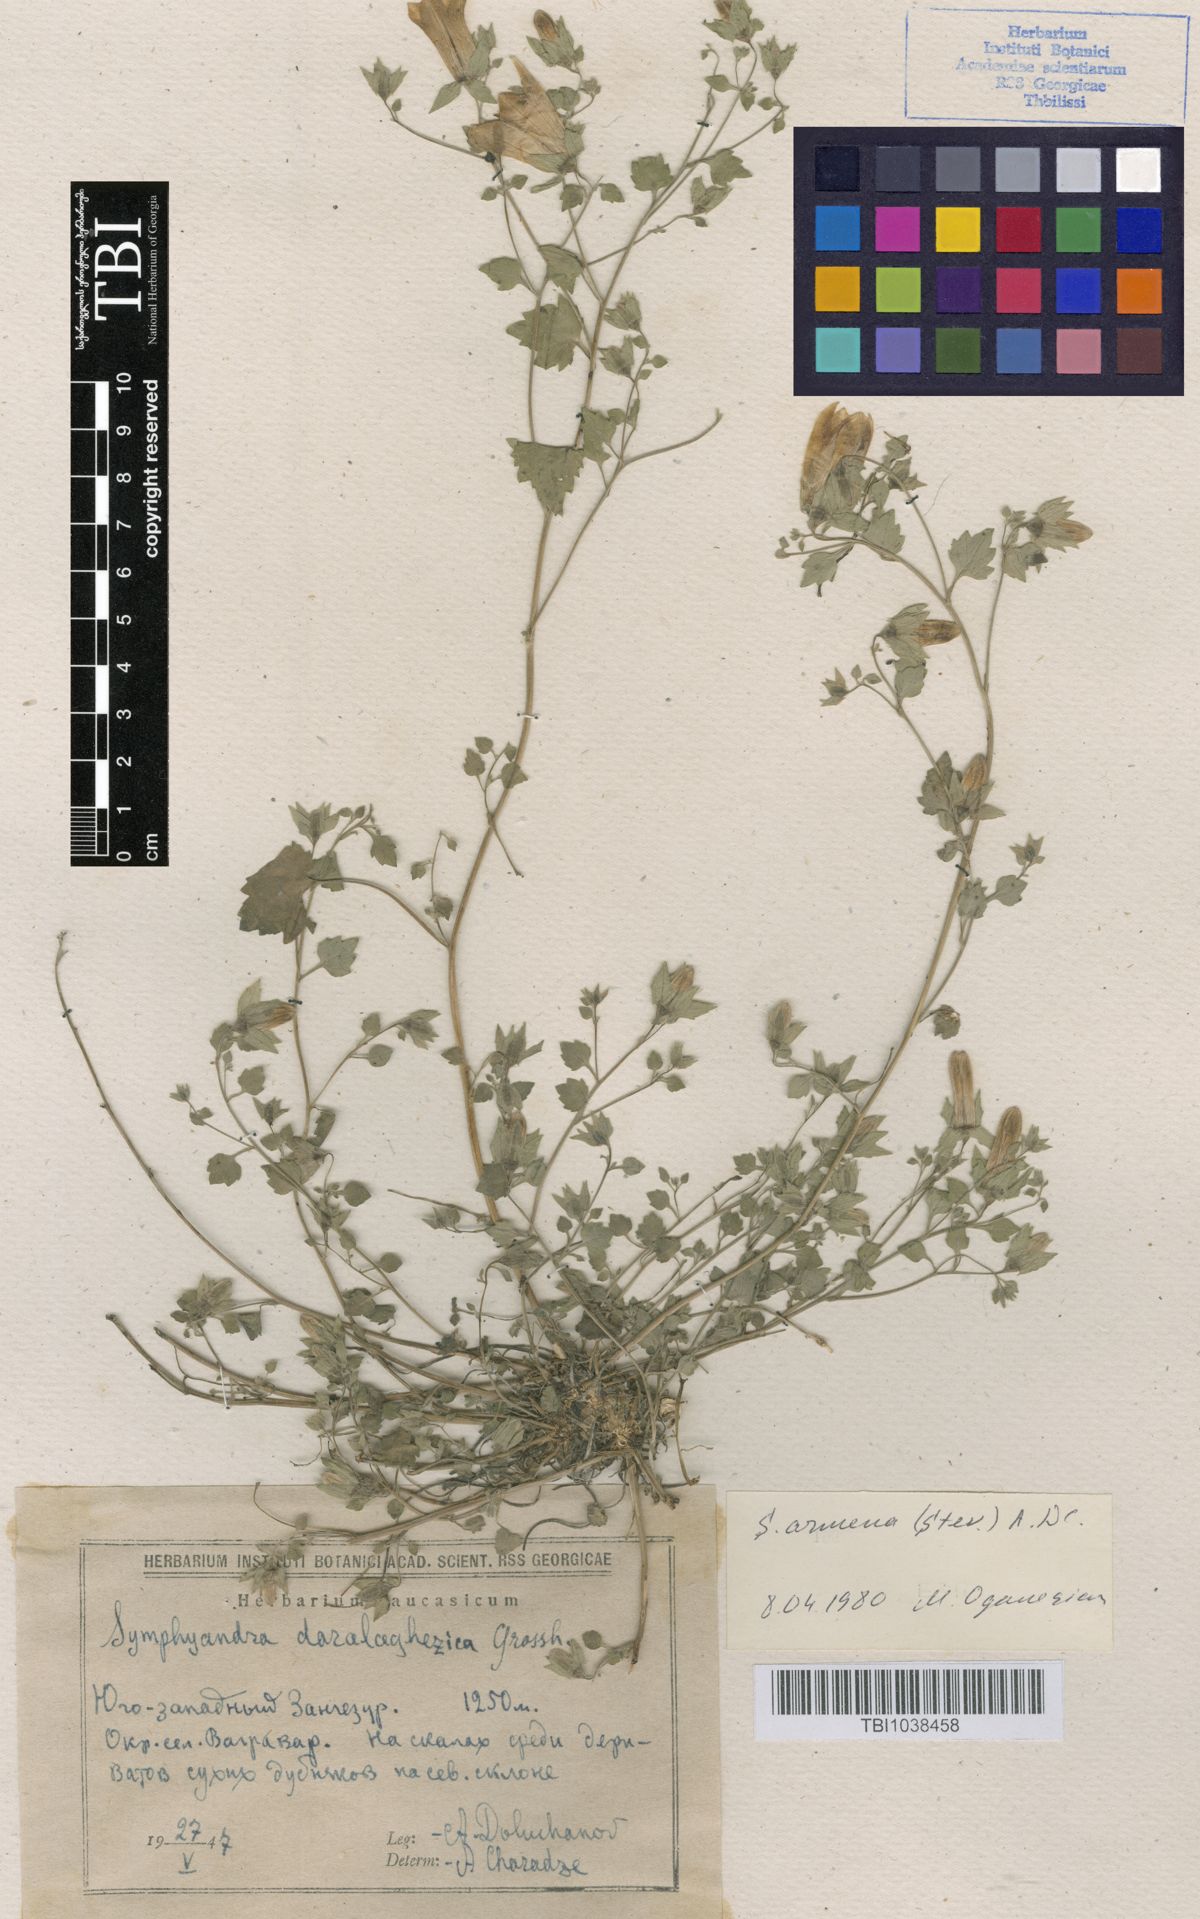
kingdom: Plantae
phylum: Tracheophyta
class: Magnoliopsida
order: Asterales
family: Campanulaceae
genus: Campanula
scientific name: Campanula armena
